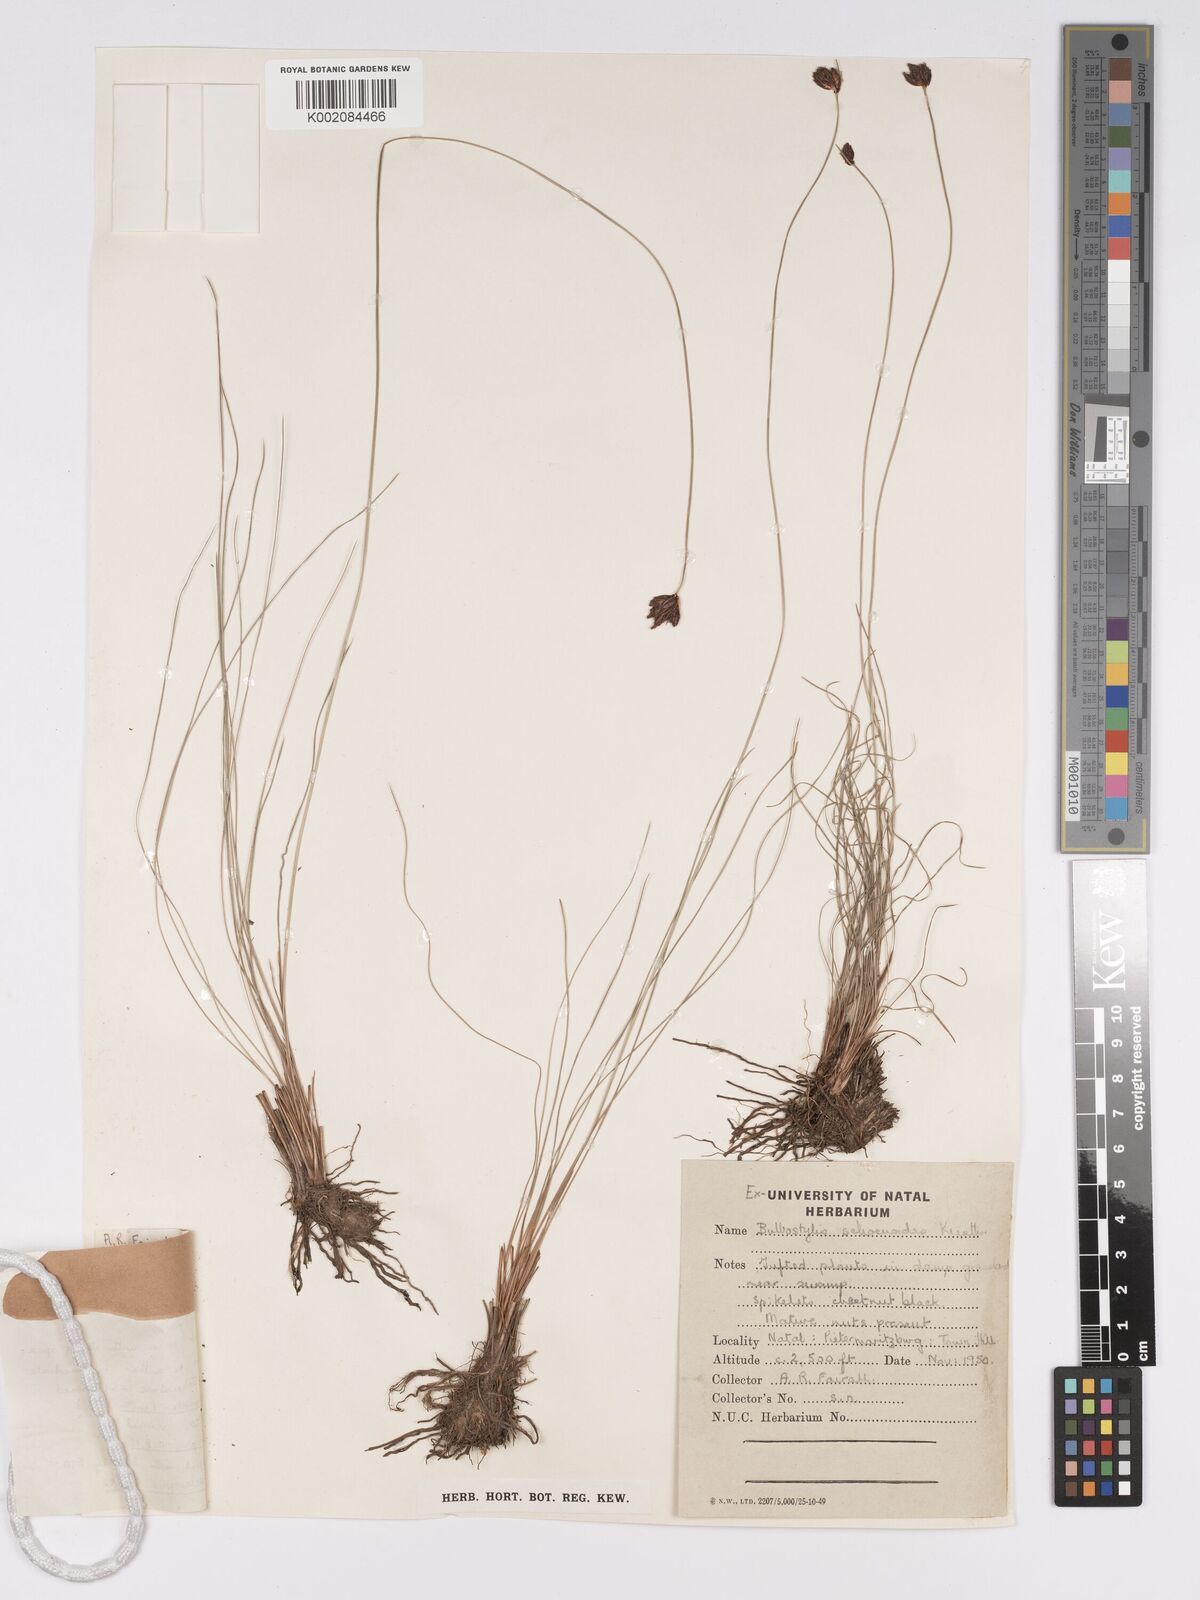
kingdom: Plantae
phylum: Tracheophyta
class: Liliopsida
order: Poales
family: Cyperaceae
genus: Bulbostylis
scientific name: Bulbostylis schoenoides
